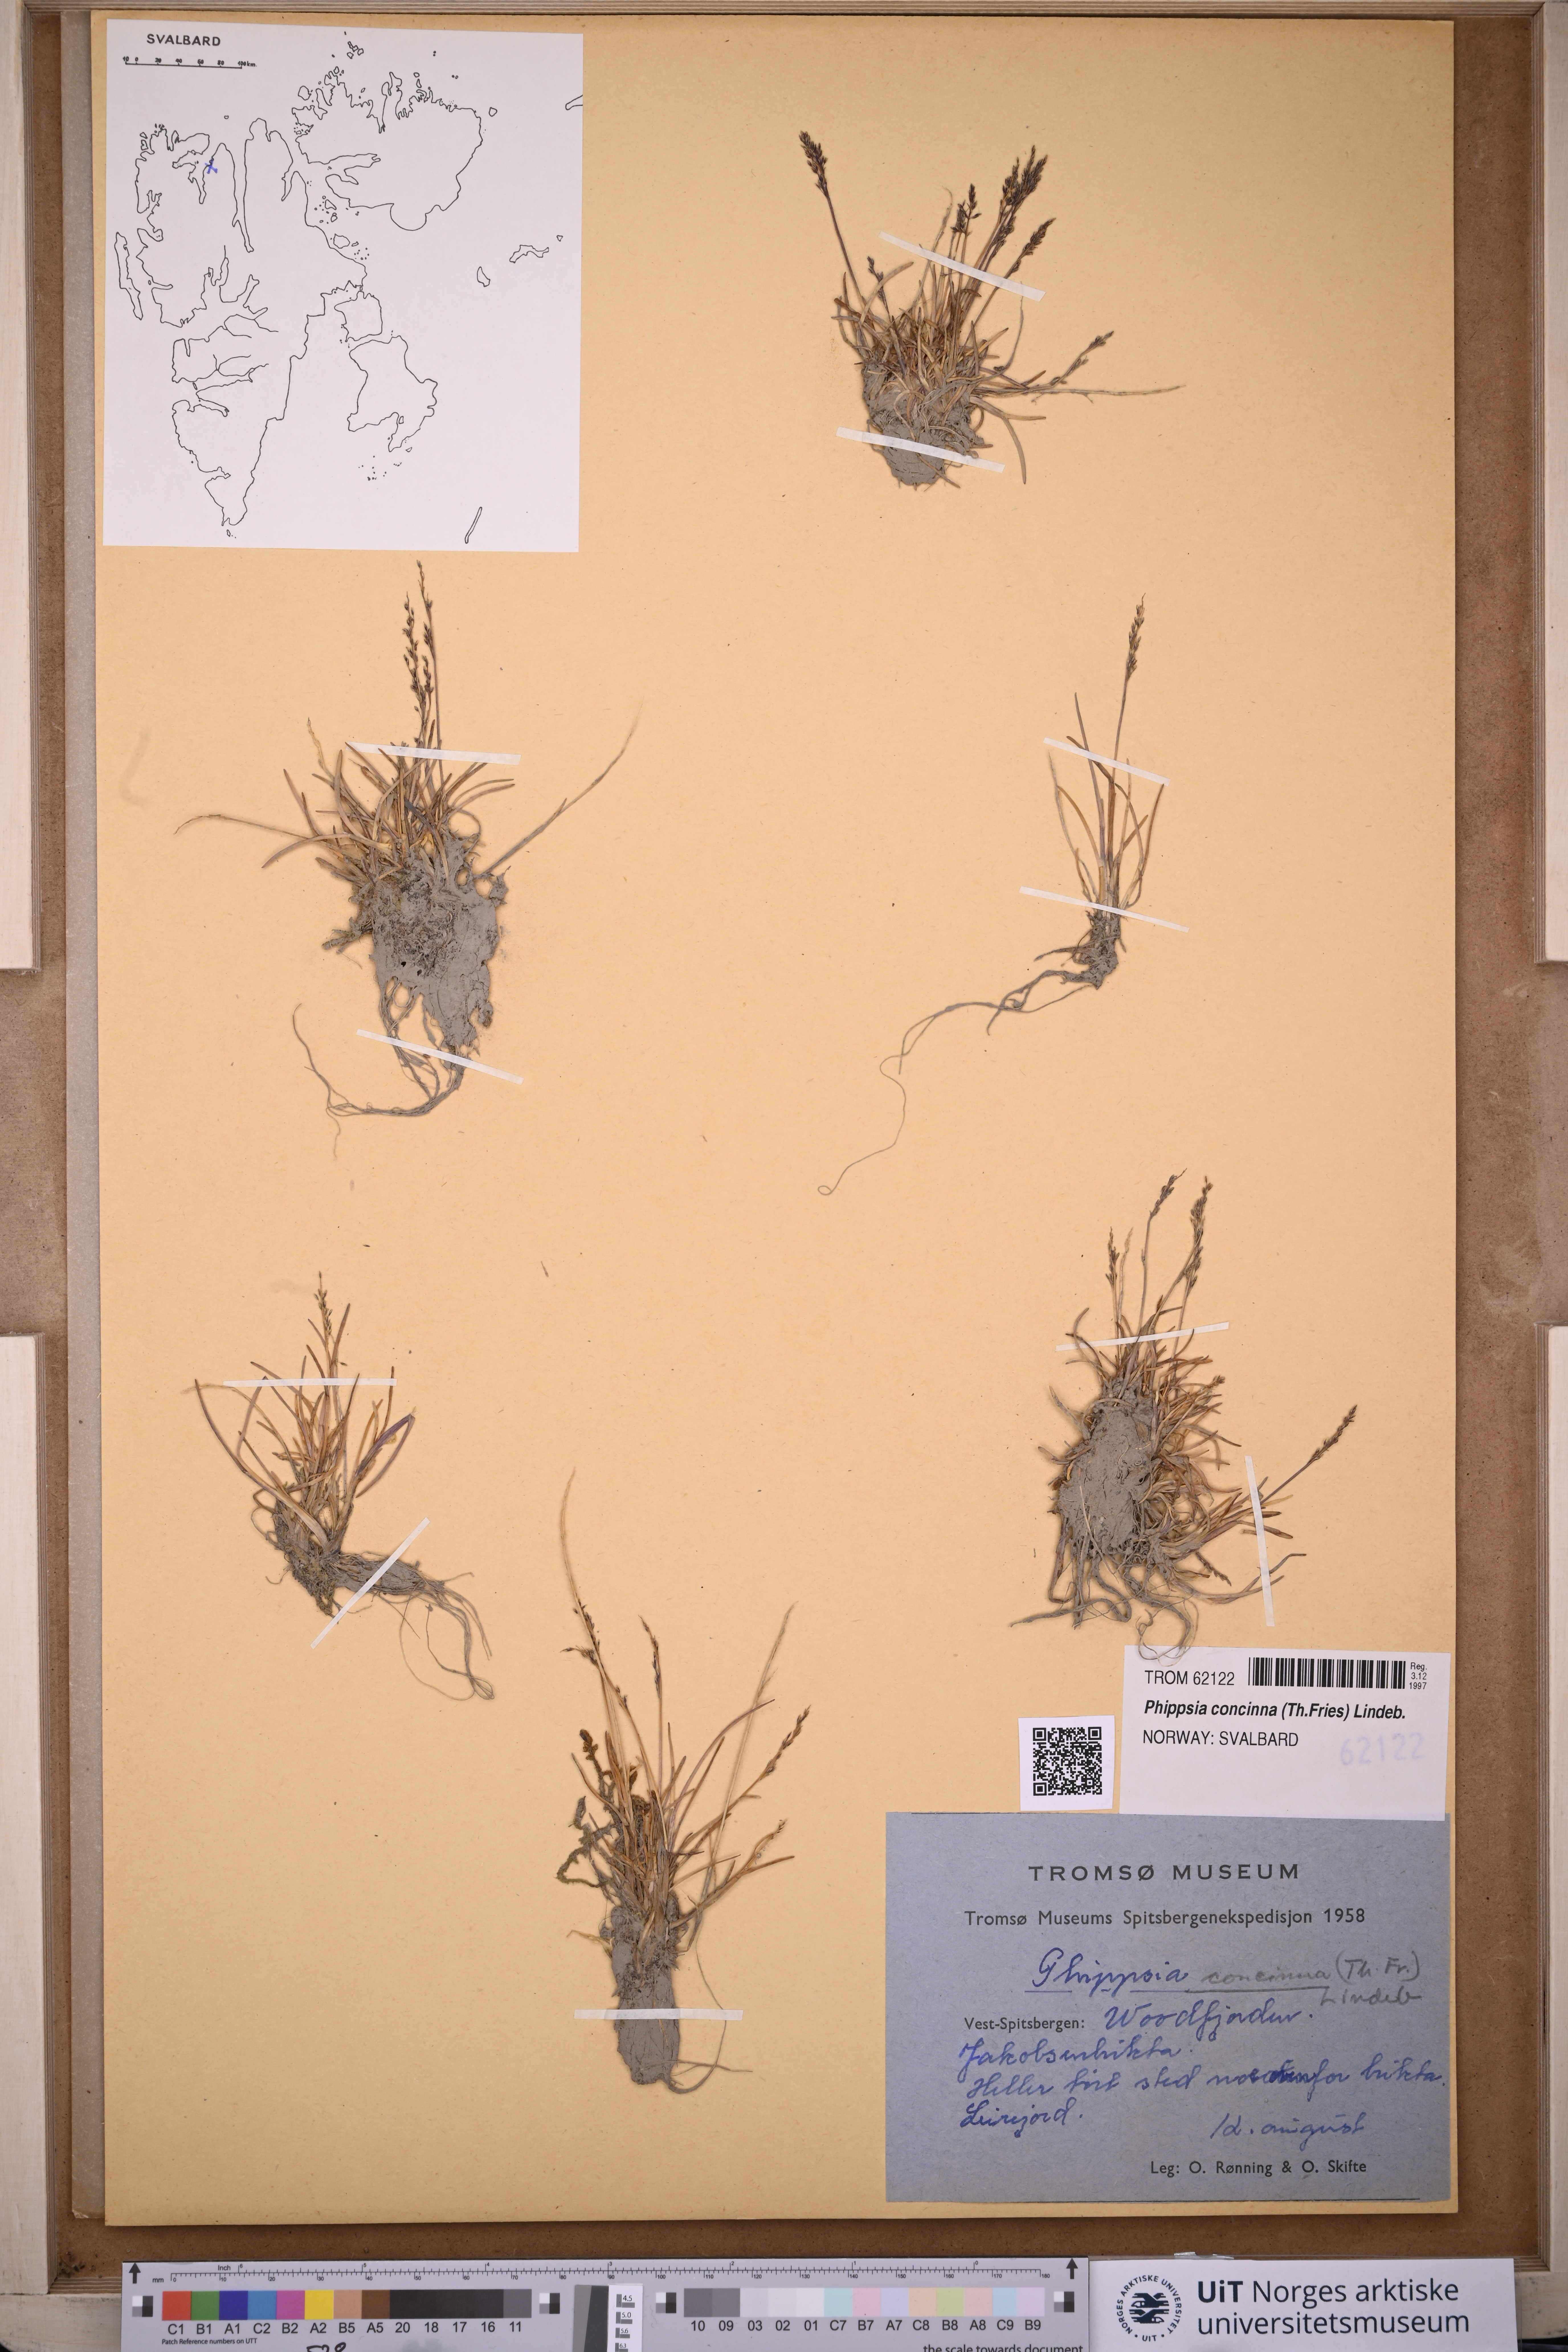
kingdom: Plantae
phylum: Tracheophyta
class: Liliopsida
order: Poales
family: Poaceae
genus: Phippsia
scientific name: Phippsia concinna
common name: Snowgrass
